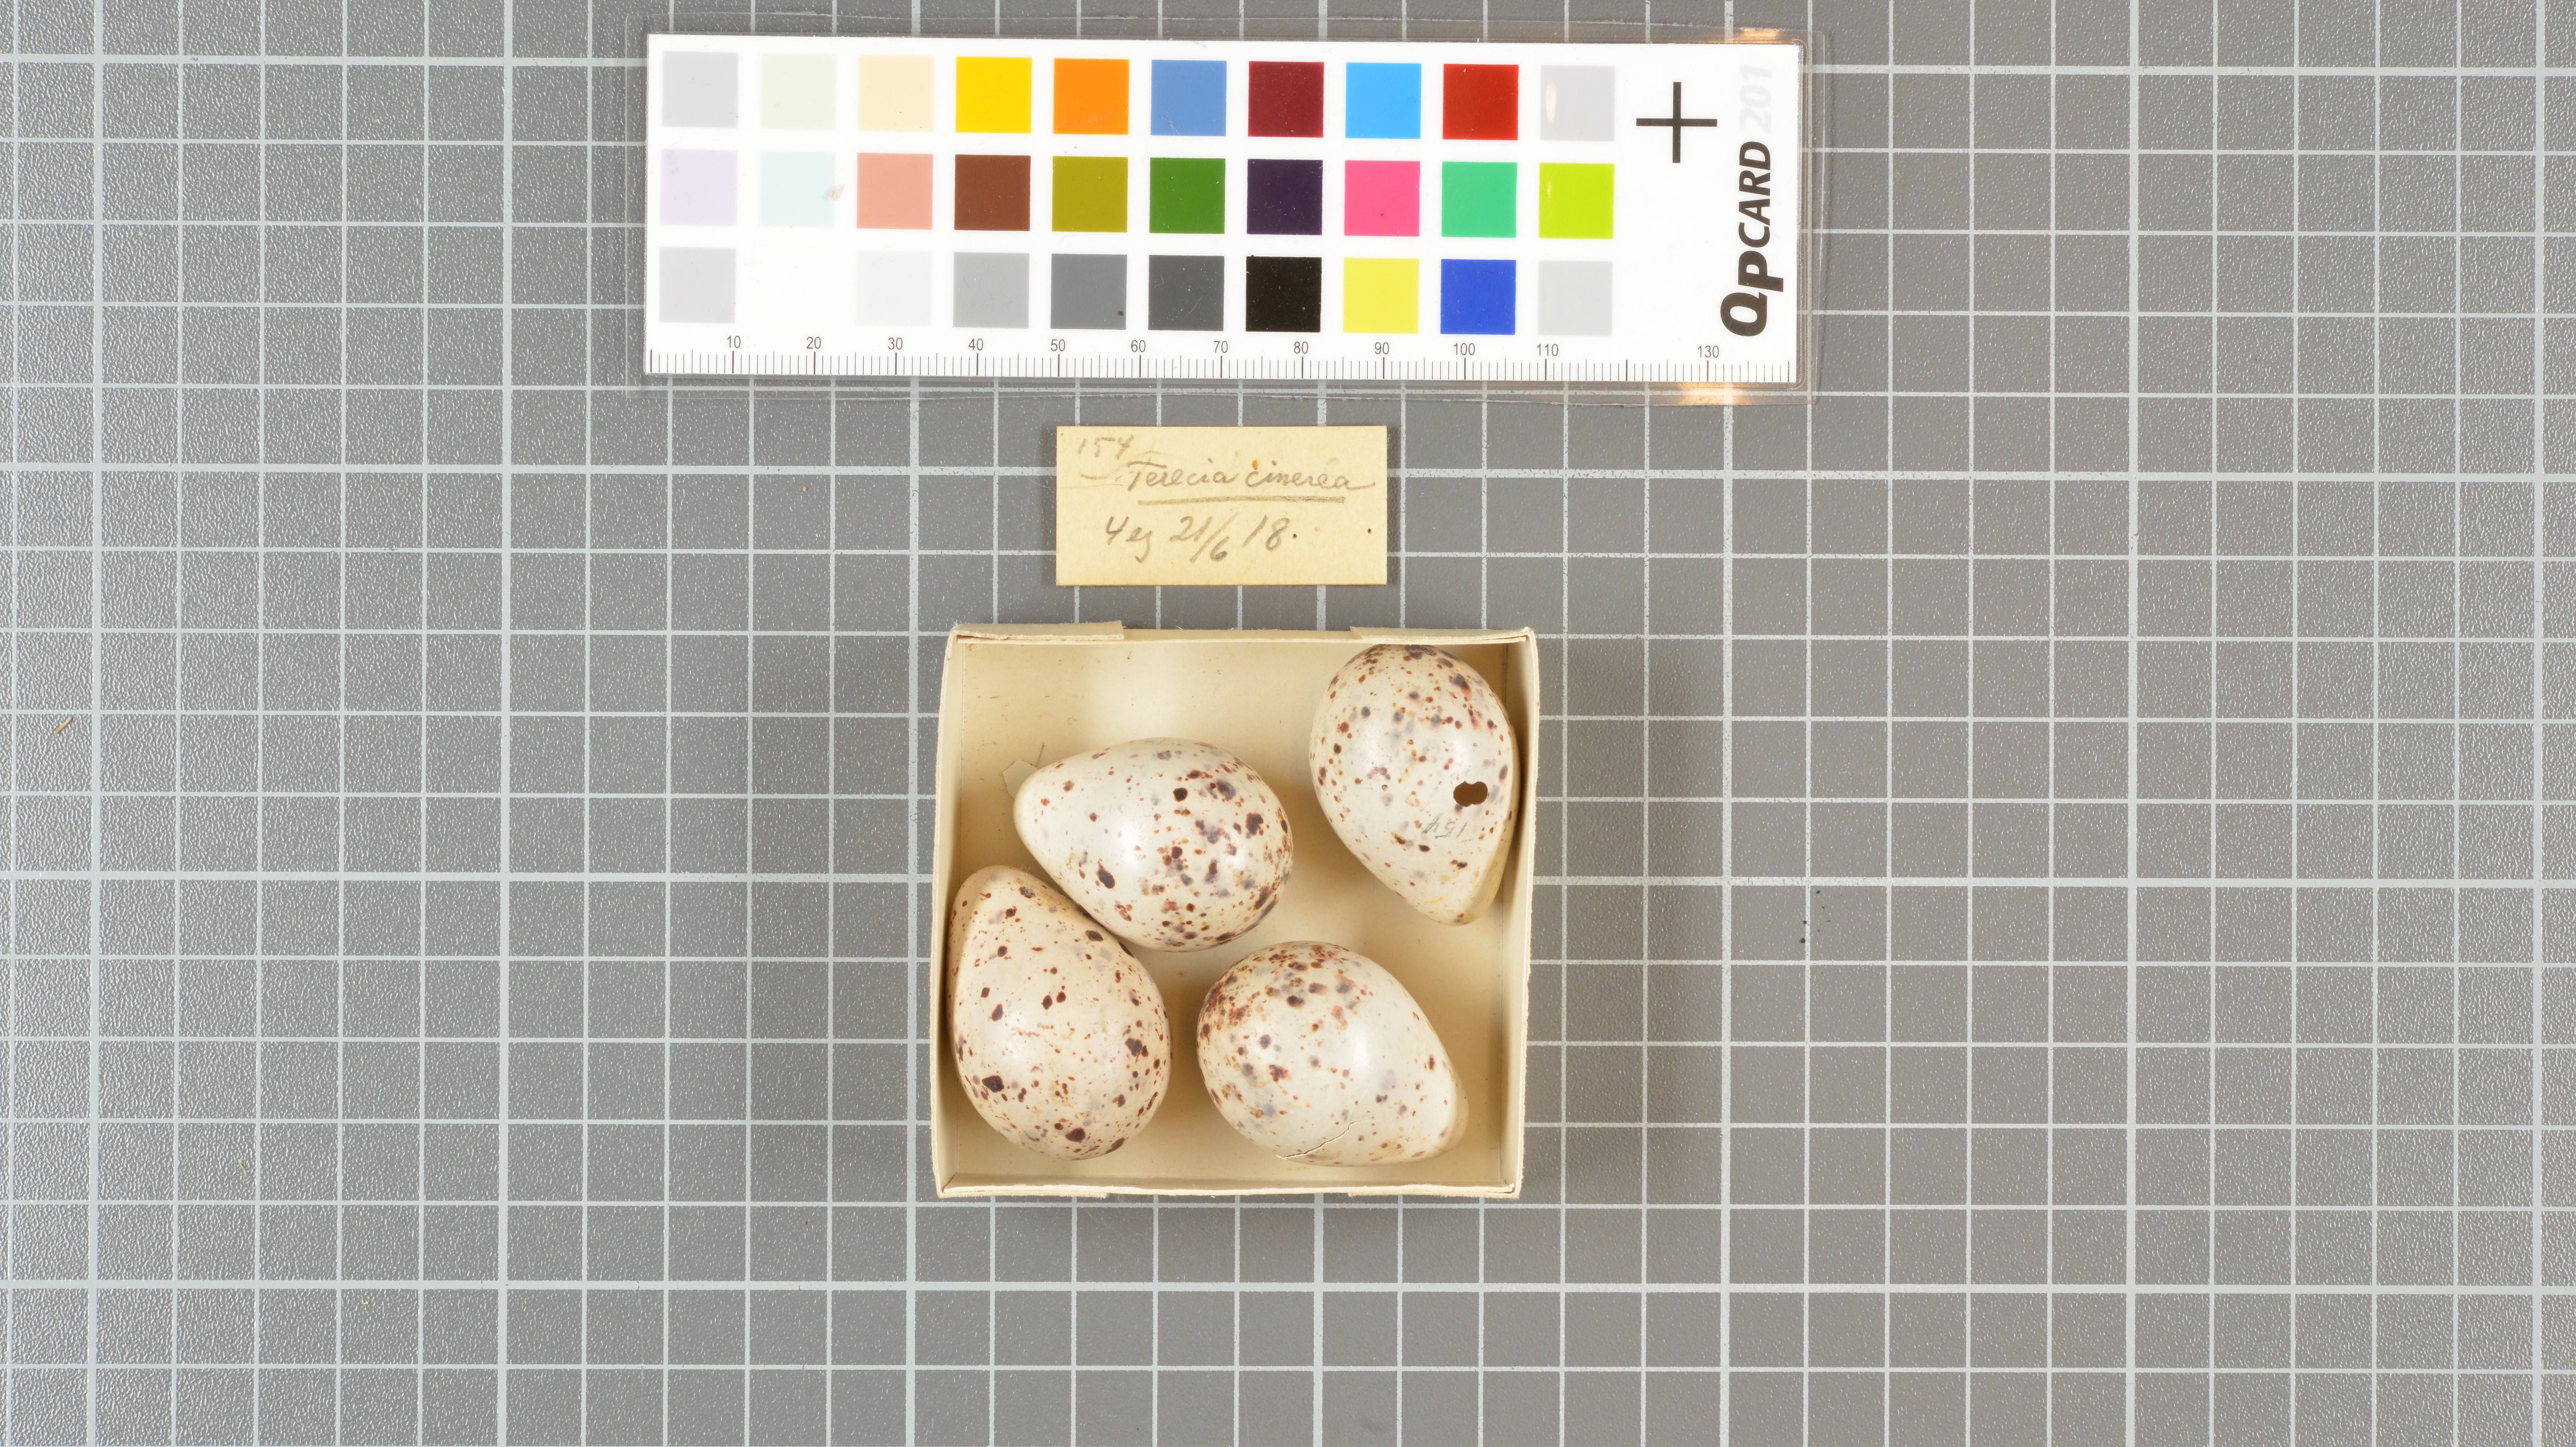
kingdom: Animalia
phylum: Chordata
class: Aves
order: Charadriiformes
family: Scolopacidae
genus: Xenus
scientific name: Xenus cinereus
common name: Terek sandpiper
